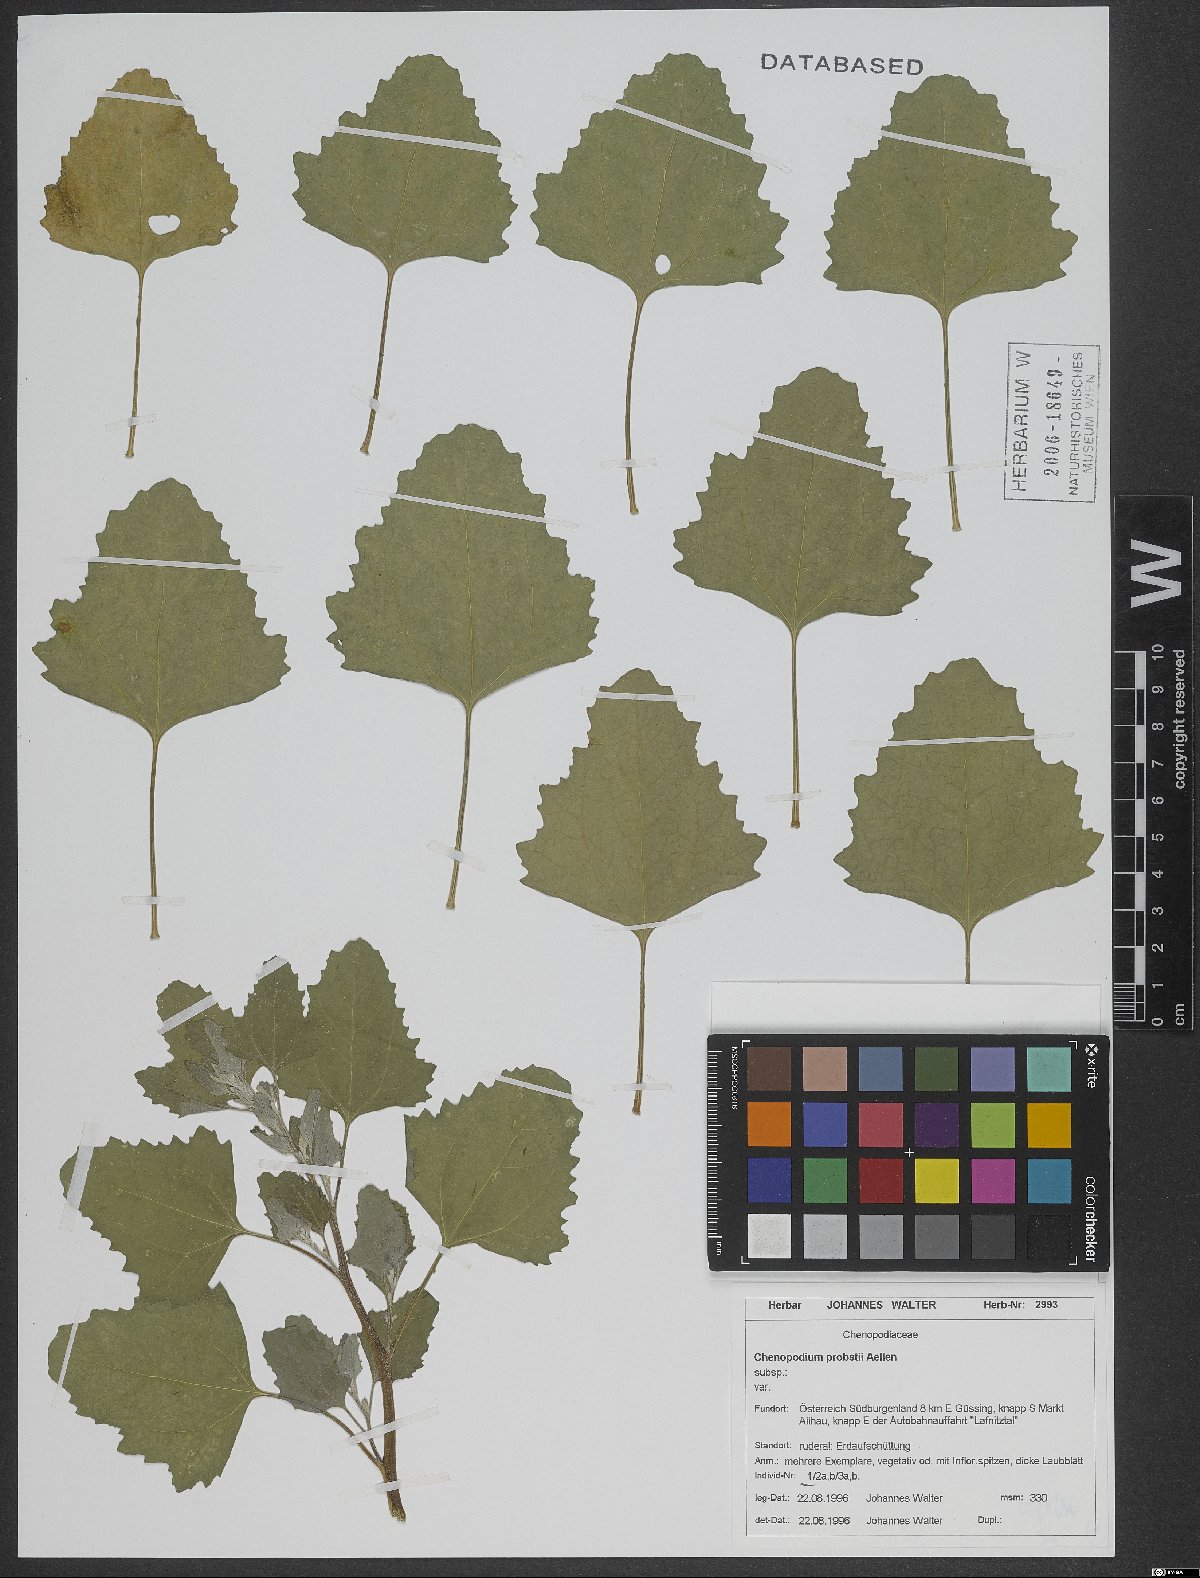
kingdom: Plantae
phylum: Tracheophyta
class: Magnoliopsida
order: Caryophyllales
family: Amaranthaceae
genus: Chenopodium
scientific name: Chenopodium probstii
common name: Probst's goosefoot
